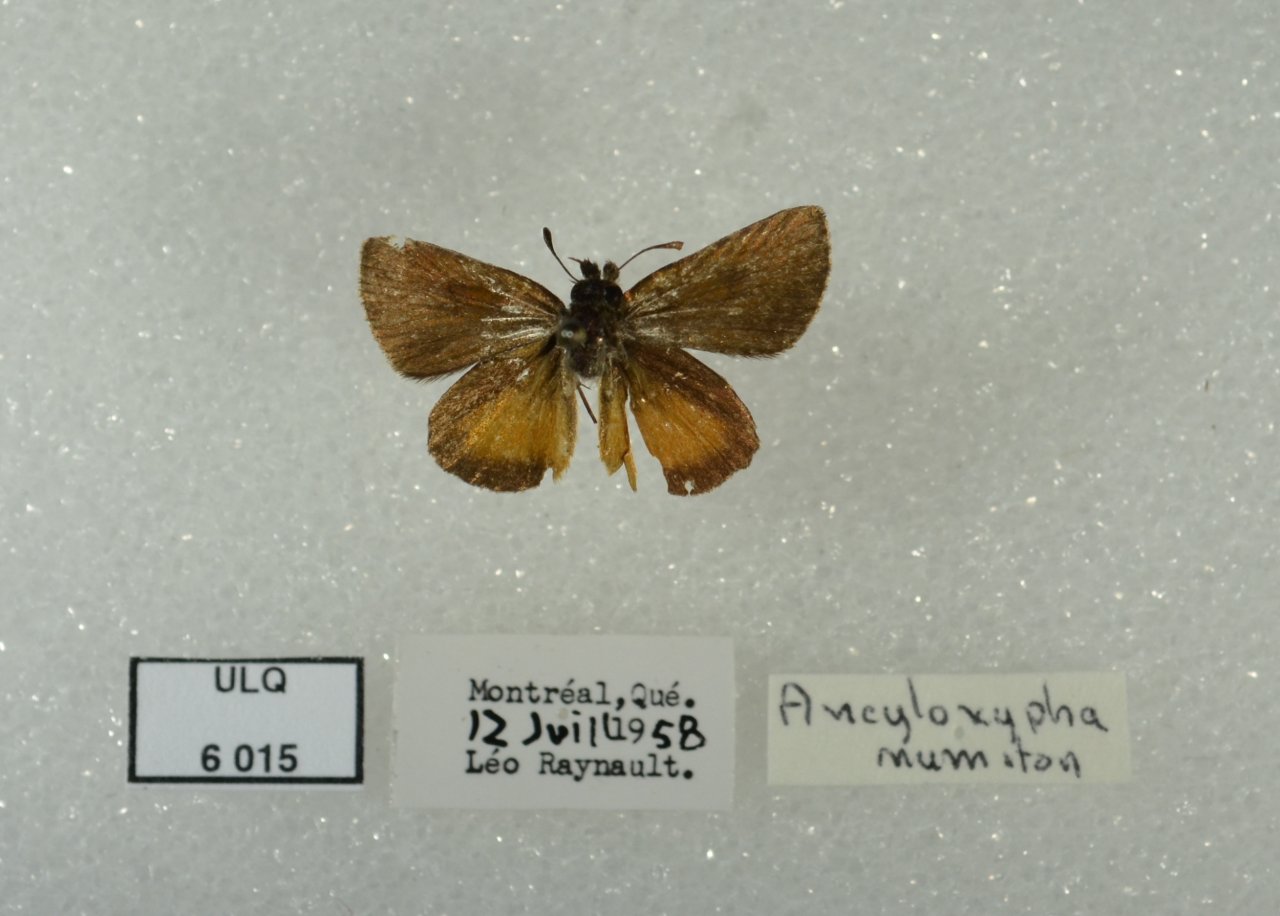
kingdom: Animalia
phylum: Arthropoda
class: Insecta
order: Lepidoptera
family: Hesperiidae
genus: Ancyloxypha
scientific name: Ancyloxypha numitor
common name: Least Skipper
